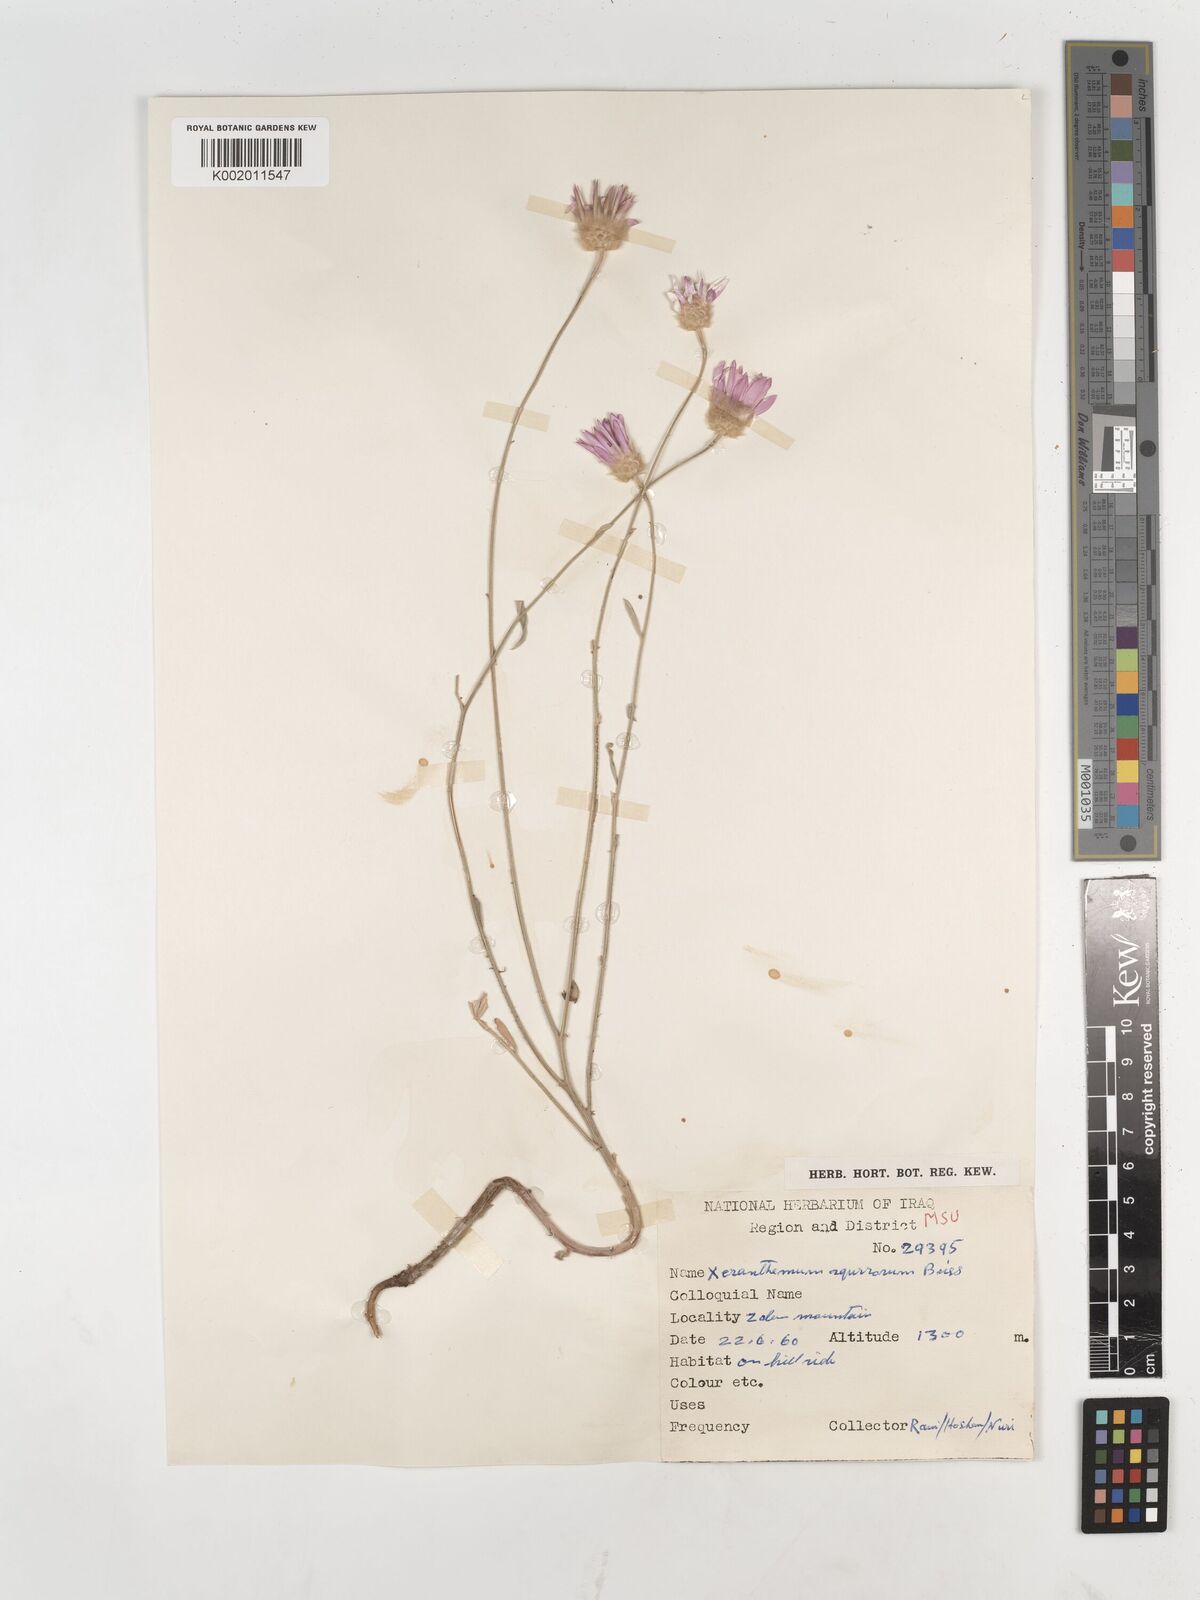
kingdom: Plantae
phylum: Tracheophyta
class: Magnoliopsida
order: Asterales
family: Asteraceae
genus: Xeranthemum
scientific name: Xeranthemum annuum
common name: Immortelle
